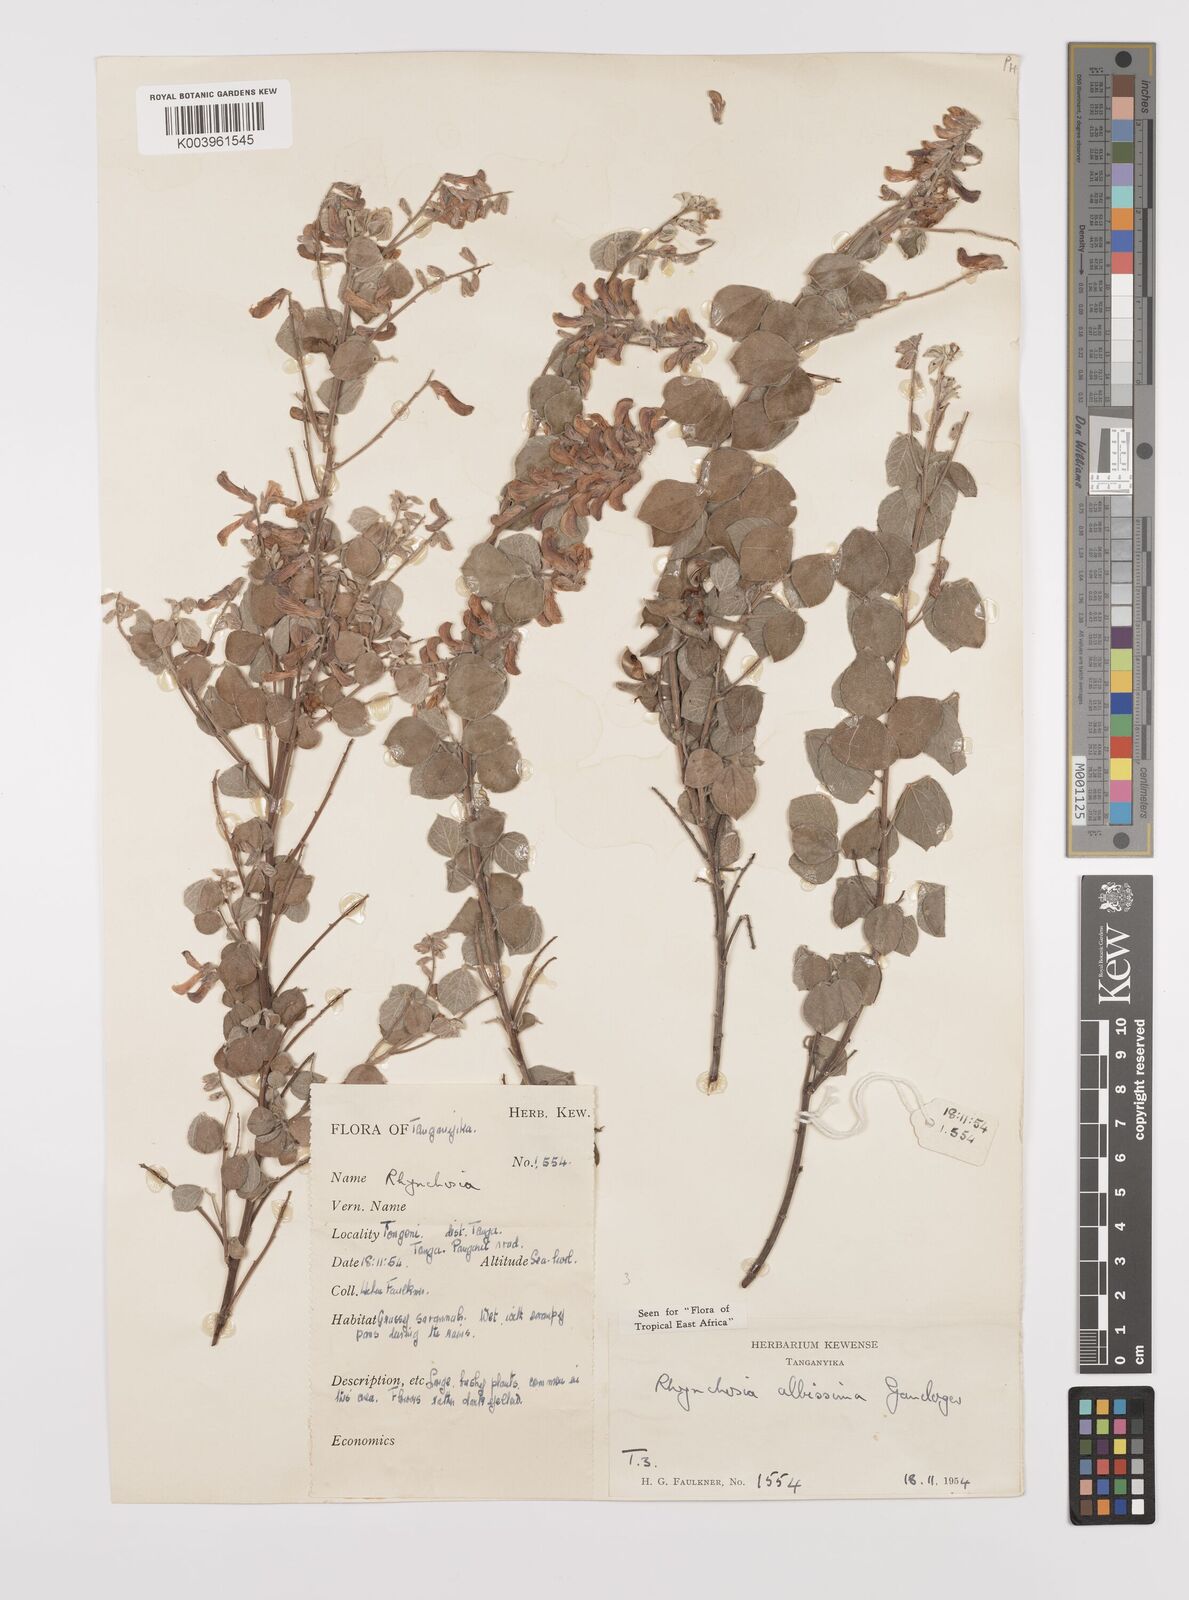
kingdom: Plantae
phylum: Tracheophyta
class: Magnoliopsida
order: Fabales
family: Fabaceae
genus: Rhynchosia
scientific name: Rhynchosia albissima
